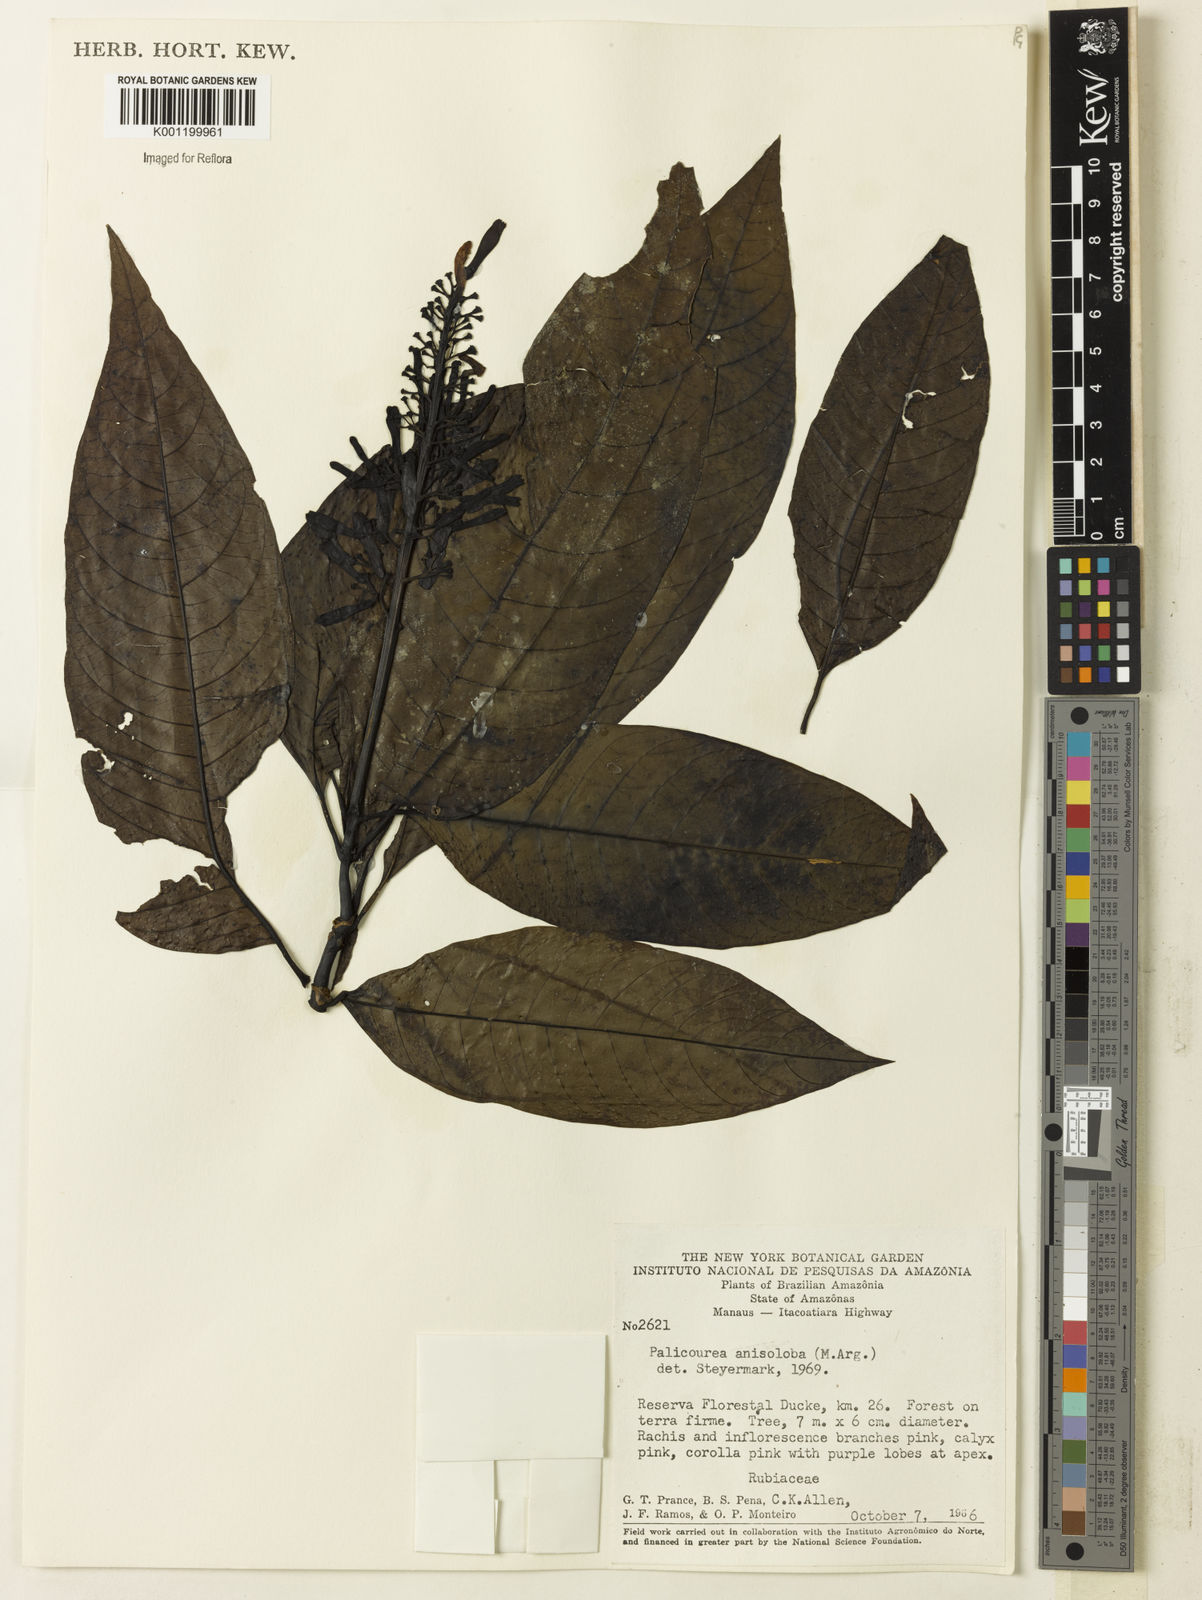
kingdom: Plantae
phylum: Tracheophyta
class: Magnoliopsida
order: Gentianales
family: Rubiaceae
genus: Palicourea
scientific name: Palicourea
